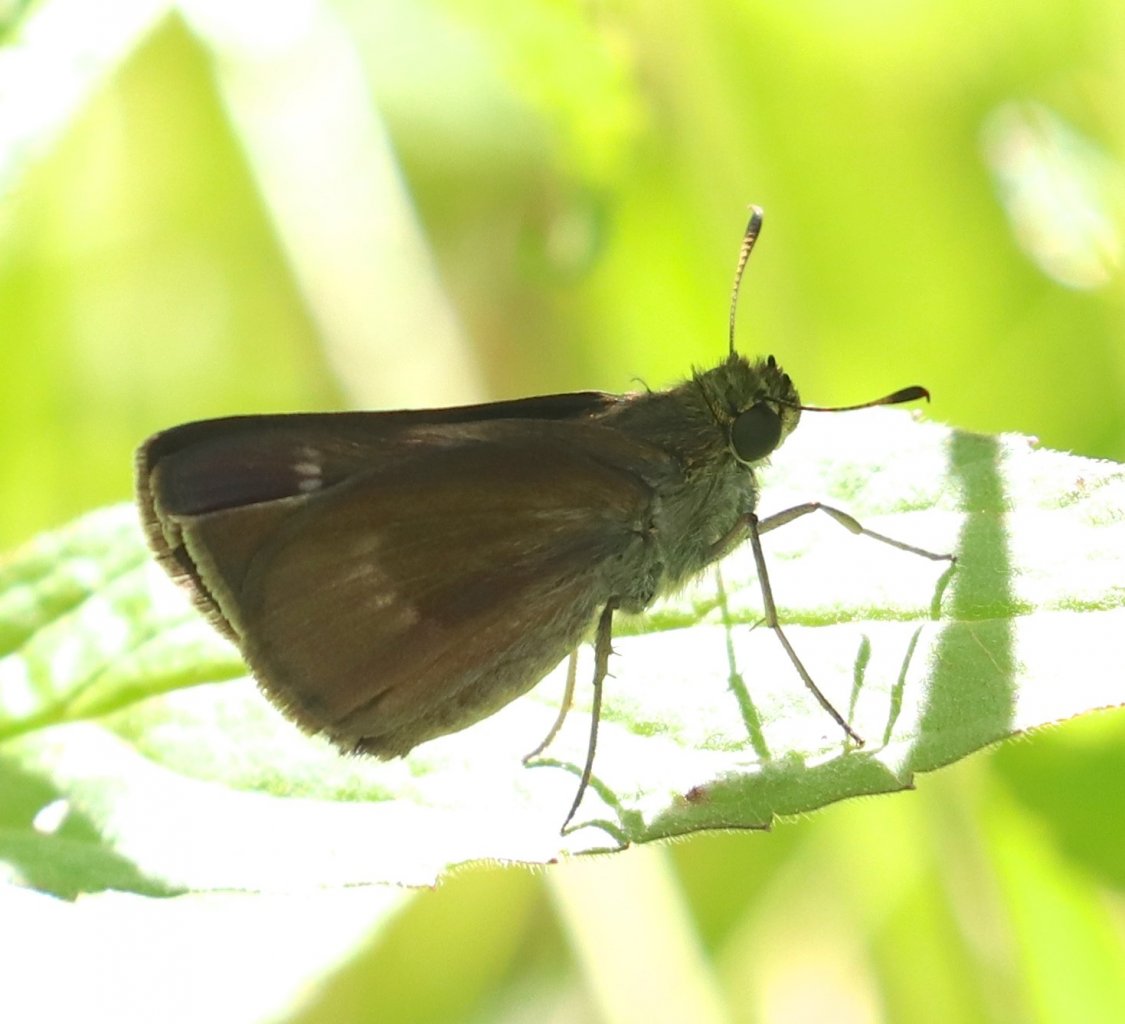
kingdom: Animalia
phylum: Arthropoda
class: Insecta
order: Lepidoptera
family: Hesperiidae
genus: Euphyes
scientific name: Euphyes vestris
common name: Dun Skipper
